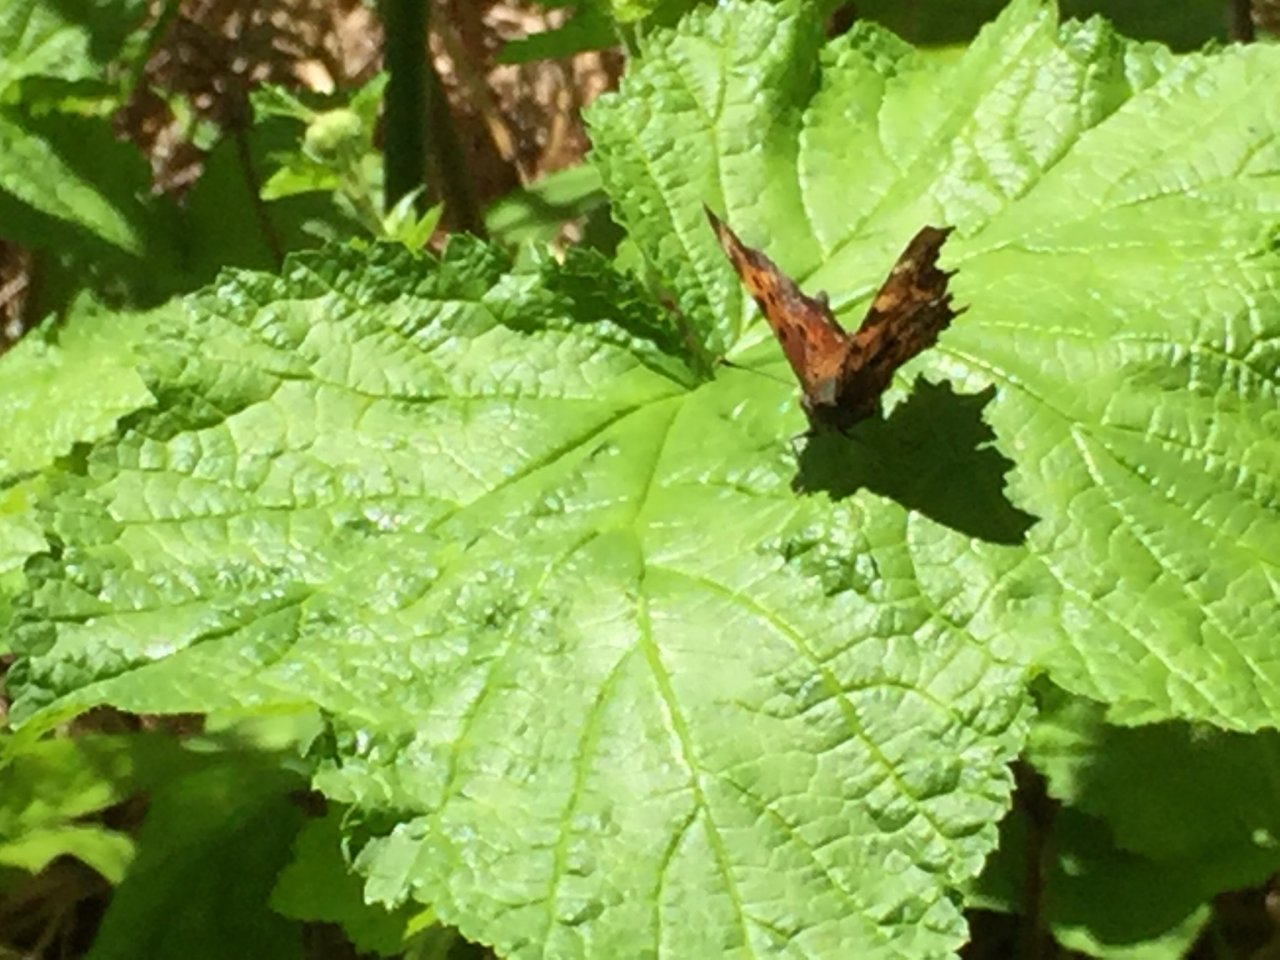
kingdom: Animalia
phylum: Arthropoda
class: Insecta
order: Lepidoptera
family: Nymphalidae
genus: Polygonia
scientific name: Polygonia
